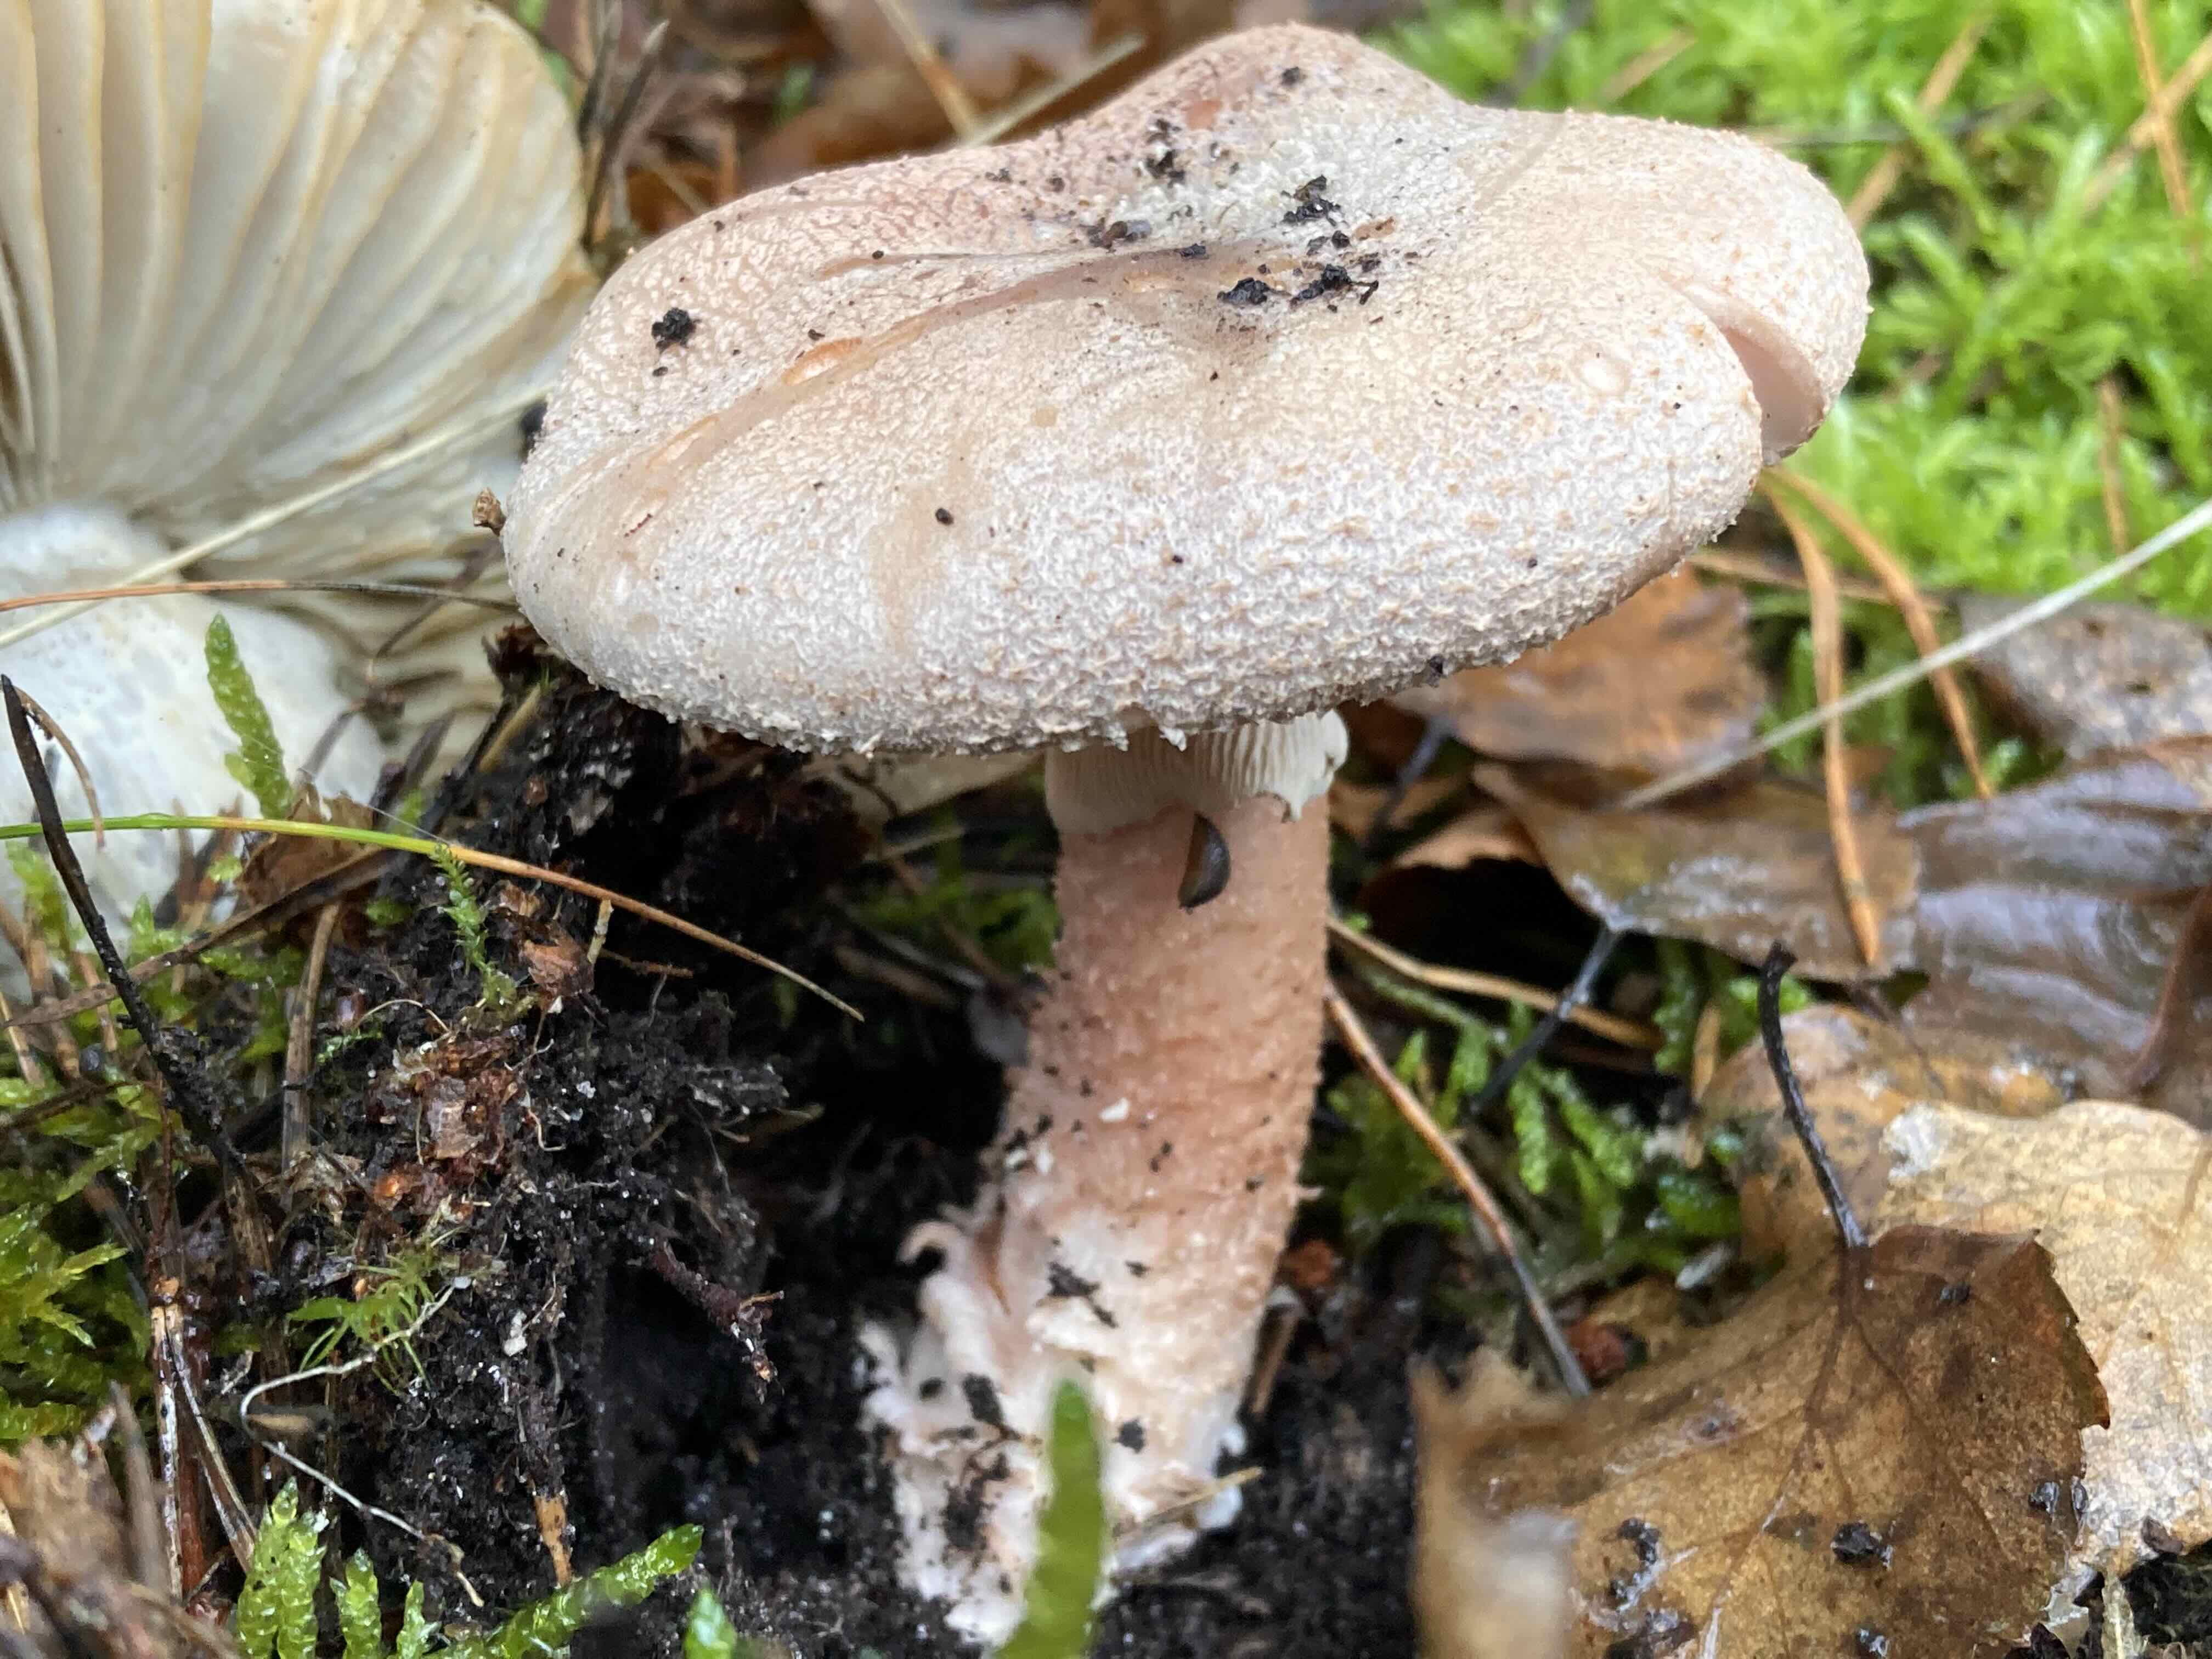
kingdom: Fungi
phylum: Basidiomycota
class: Agaricomycetes
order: Agaricales
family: Amanitaceae
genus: Amanita
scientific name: Amanita rubescens
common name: rødmende fluesvamp
